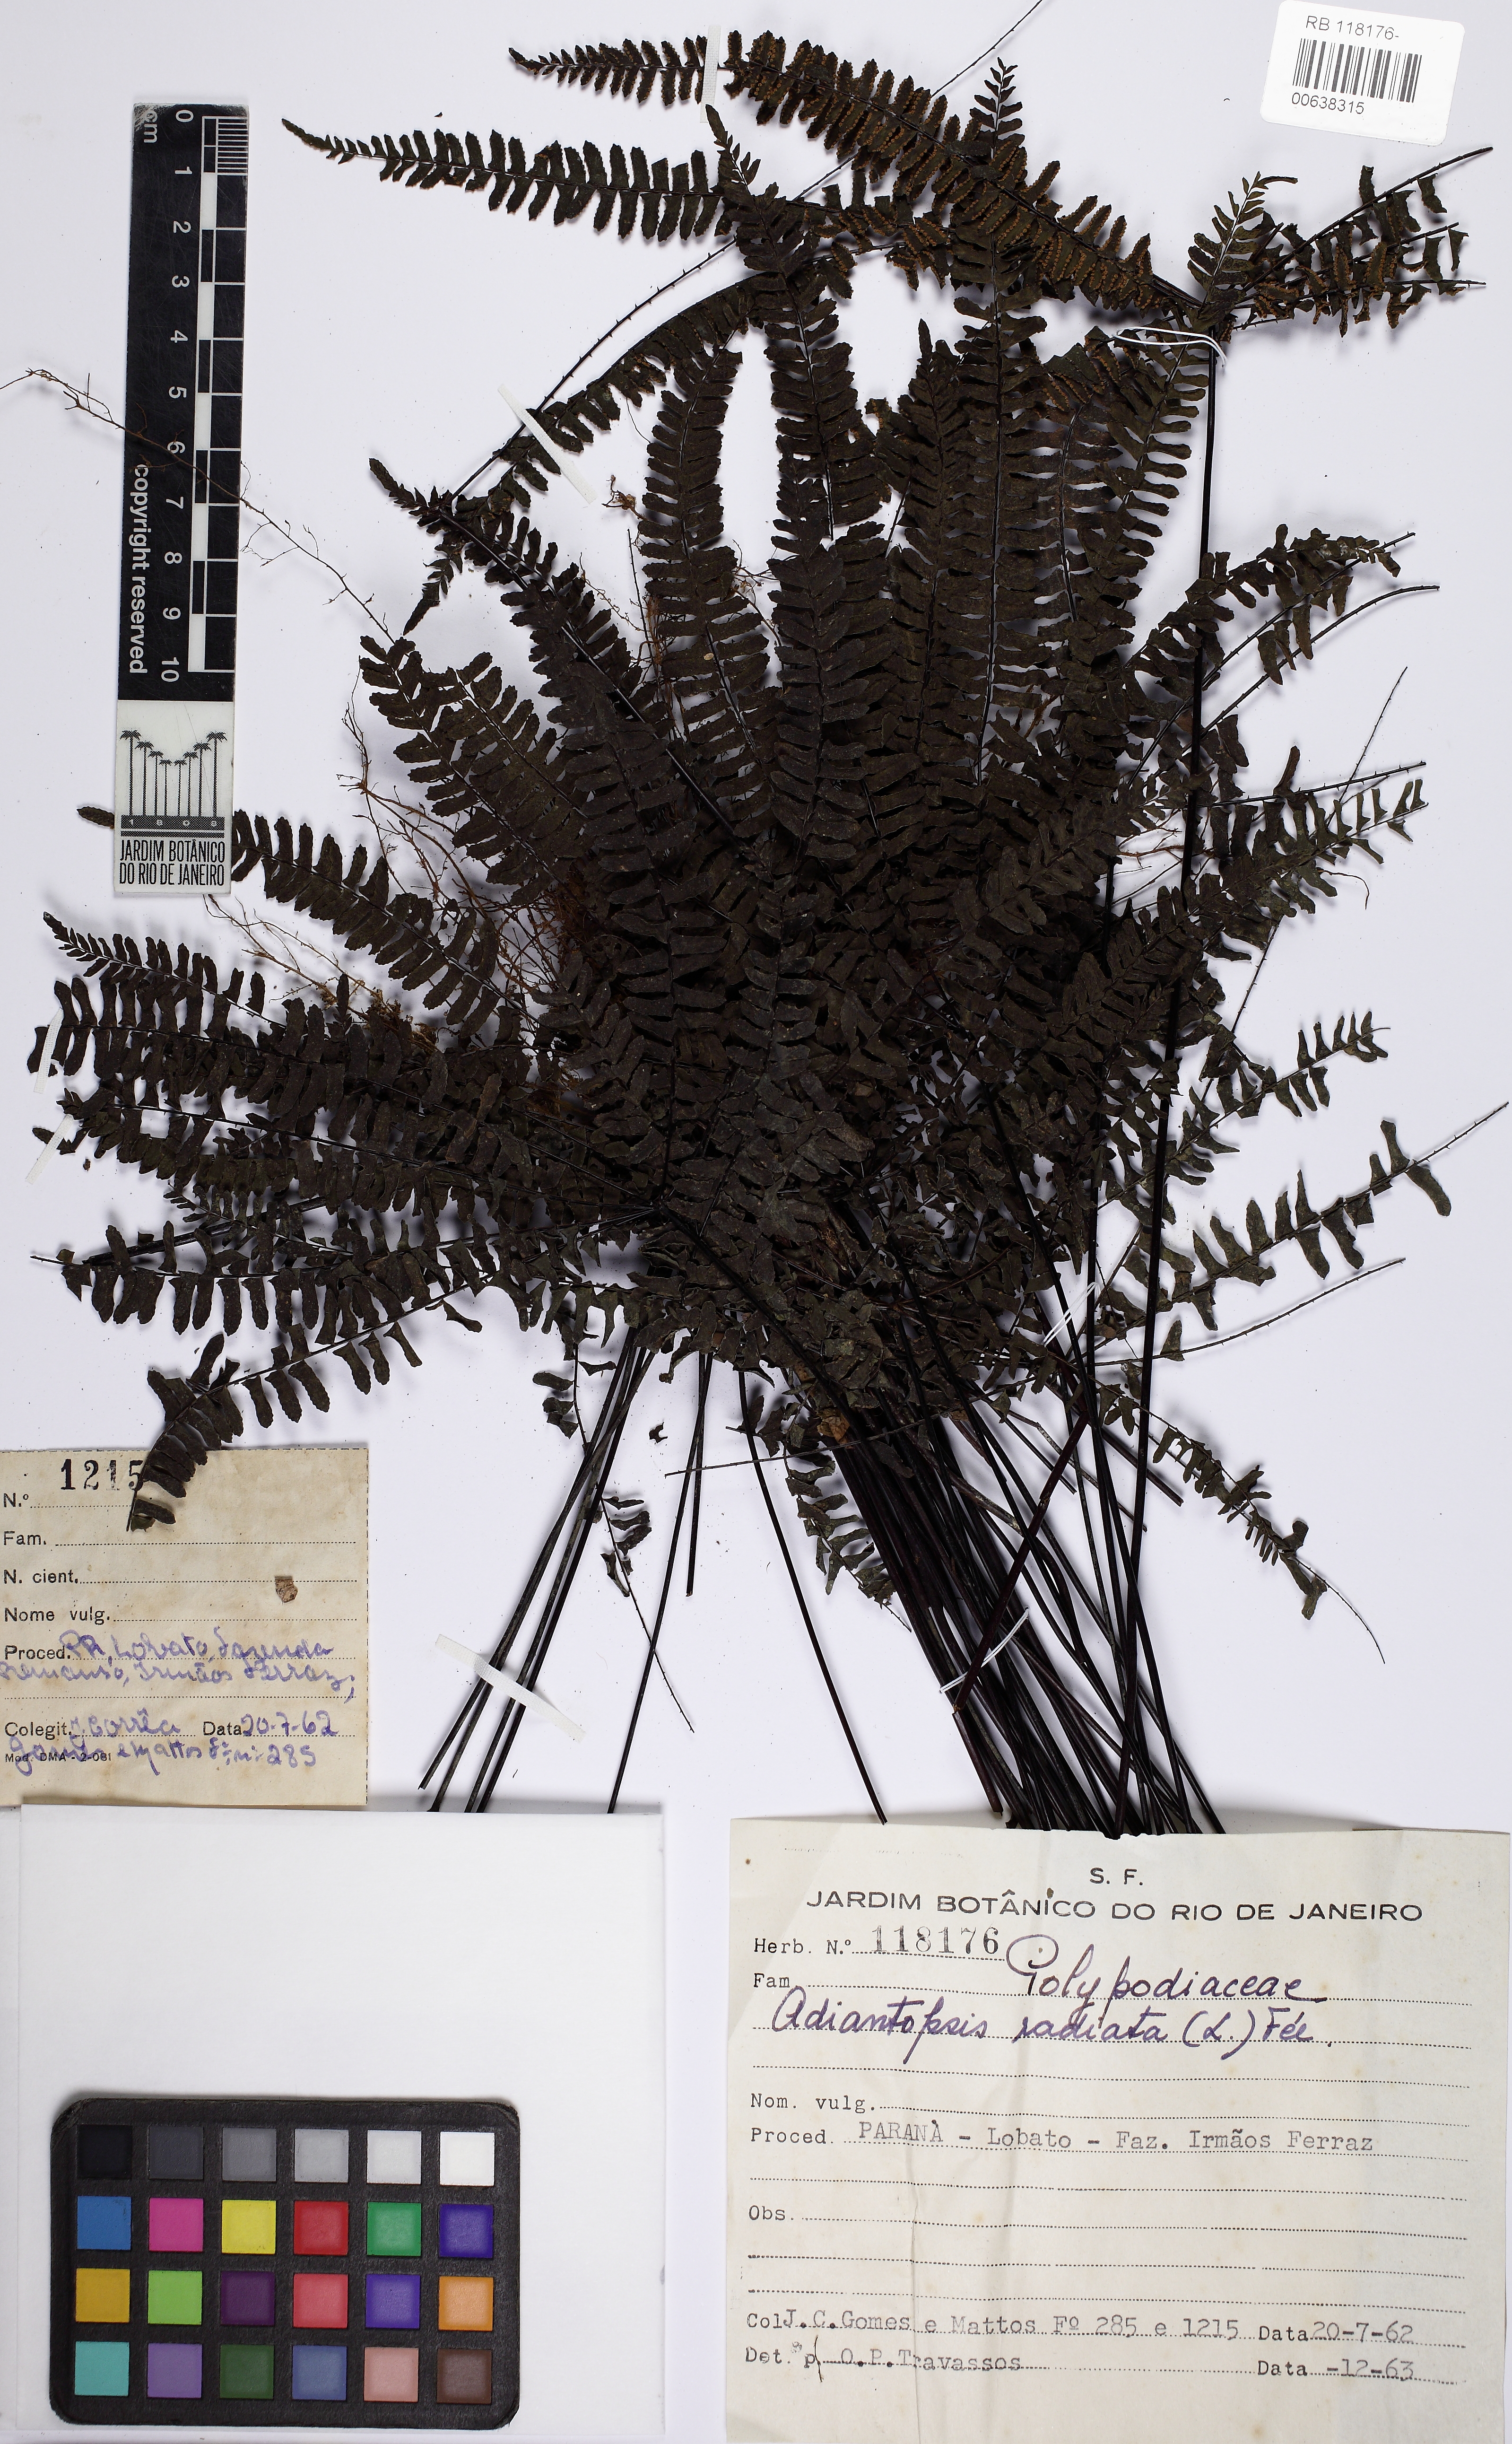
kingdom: Plantae
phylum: Tracheophyta
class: Polypodiopsida
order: Polypodiales
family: Pteridaceae
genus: Adiantopsis
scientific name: Adiantopsis radiata
